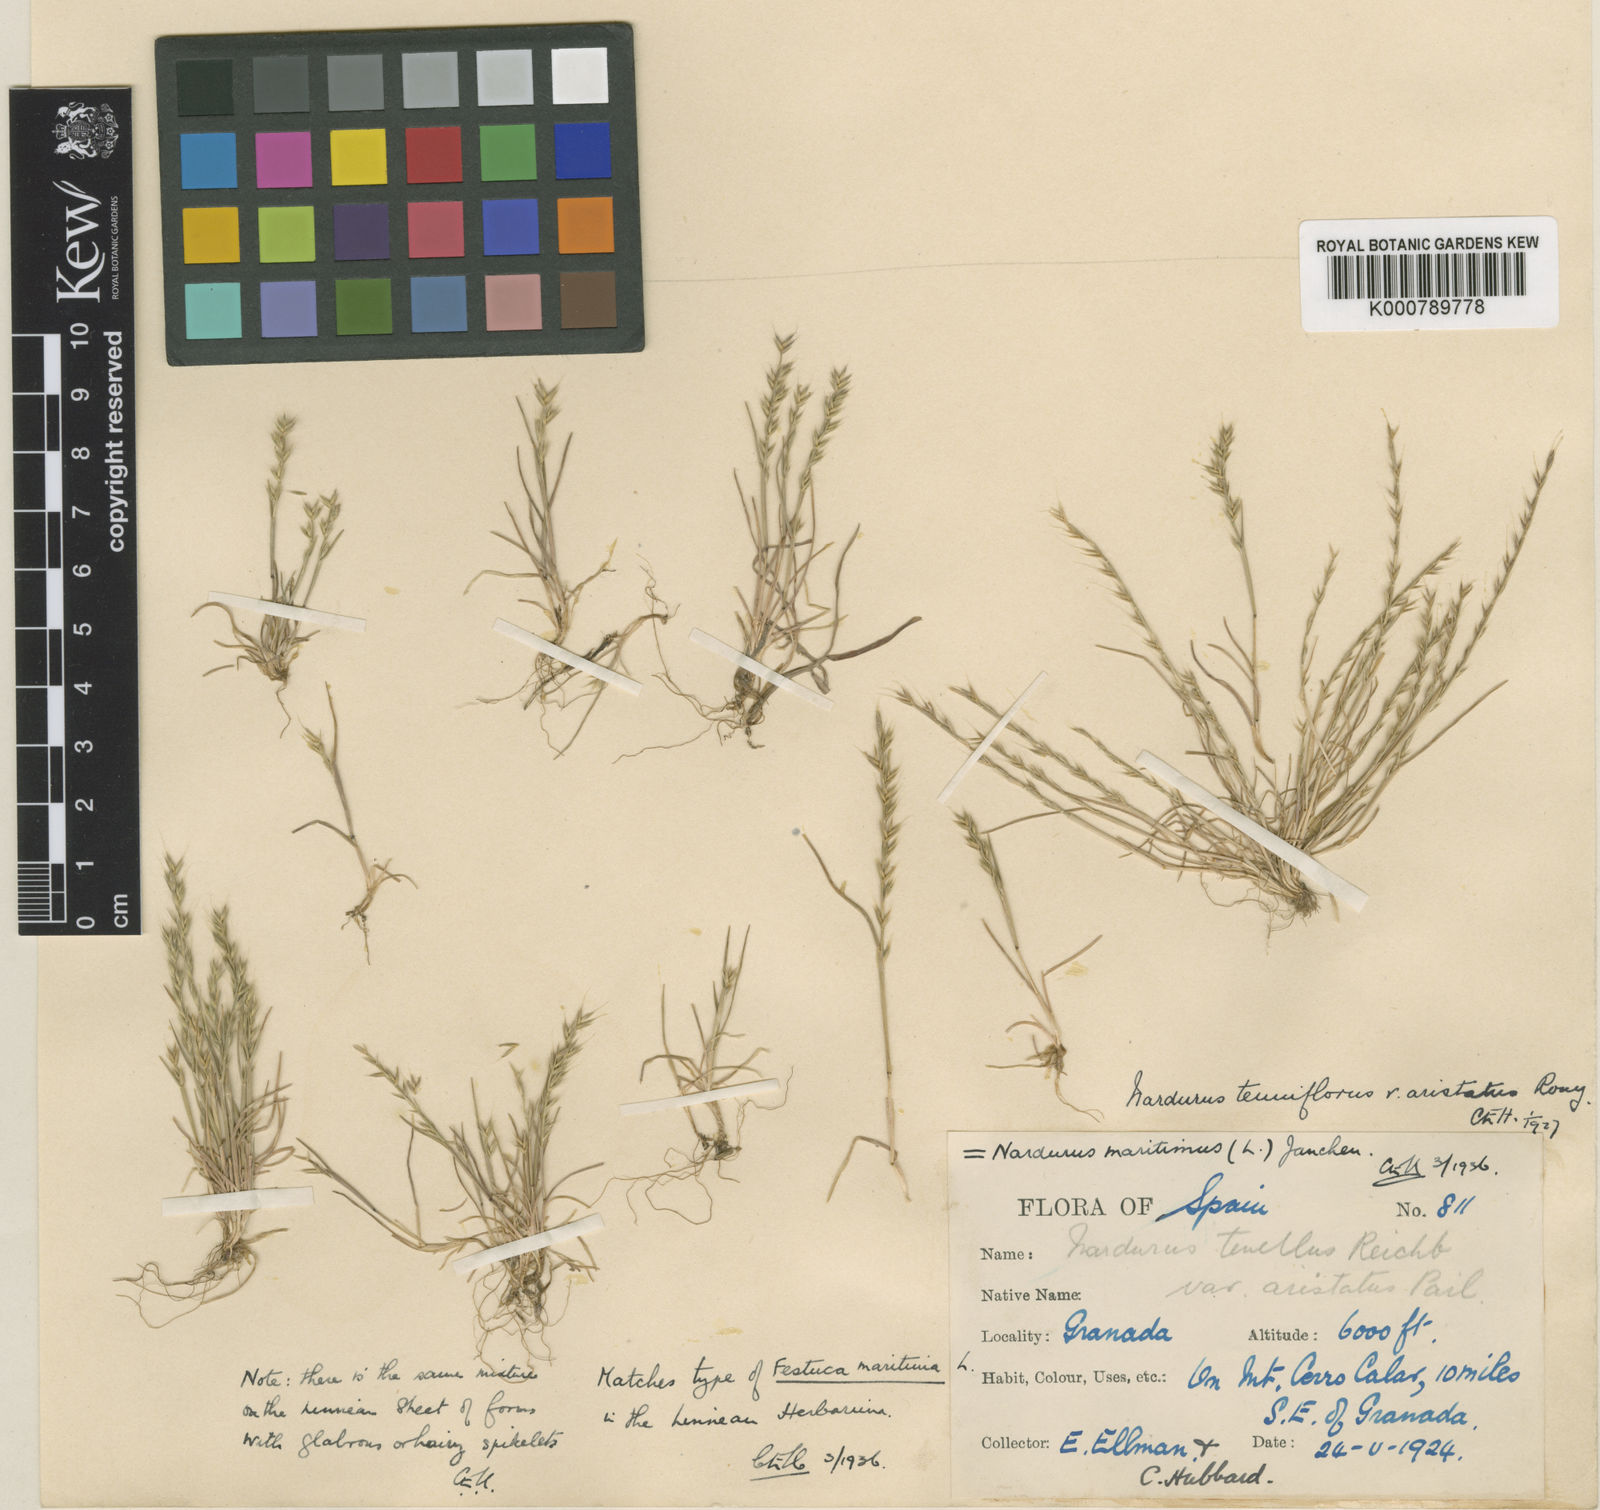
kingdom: Plantae
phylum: Tracheophyta
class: Liliopsida
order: Poales
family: Poaceae
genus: Festuca
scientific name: Festuca maritima
